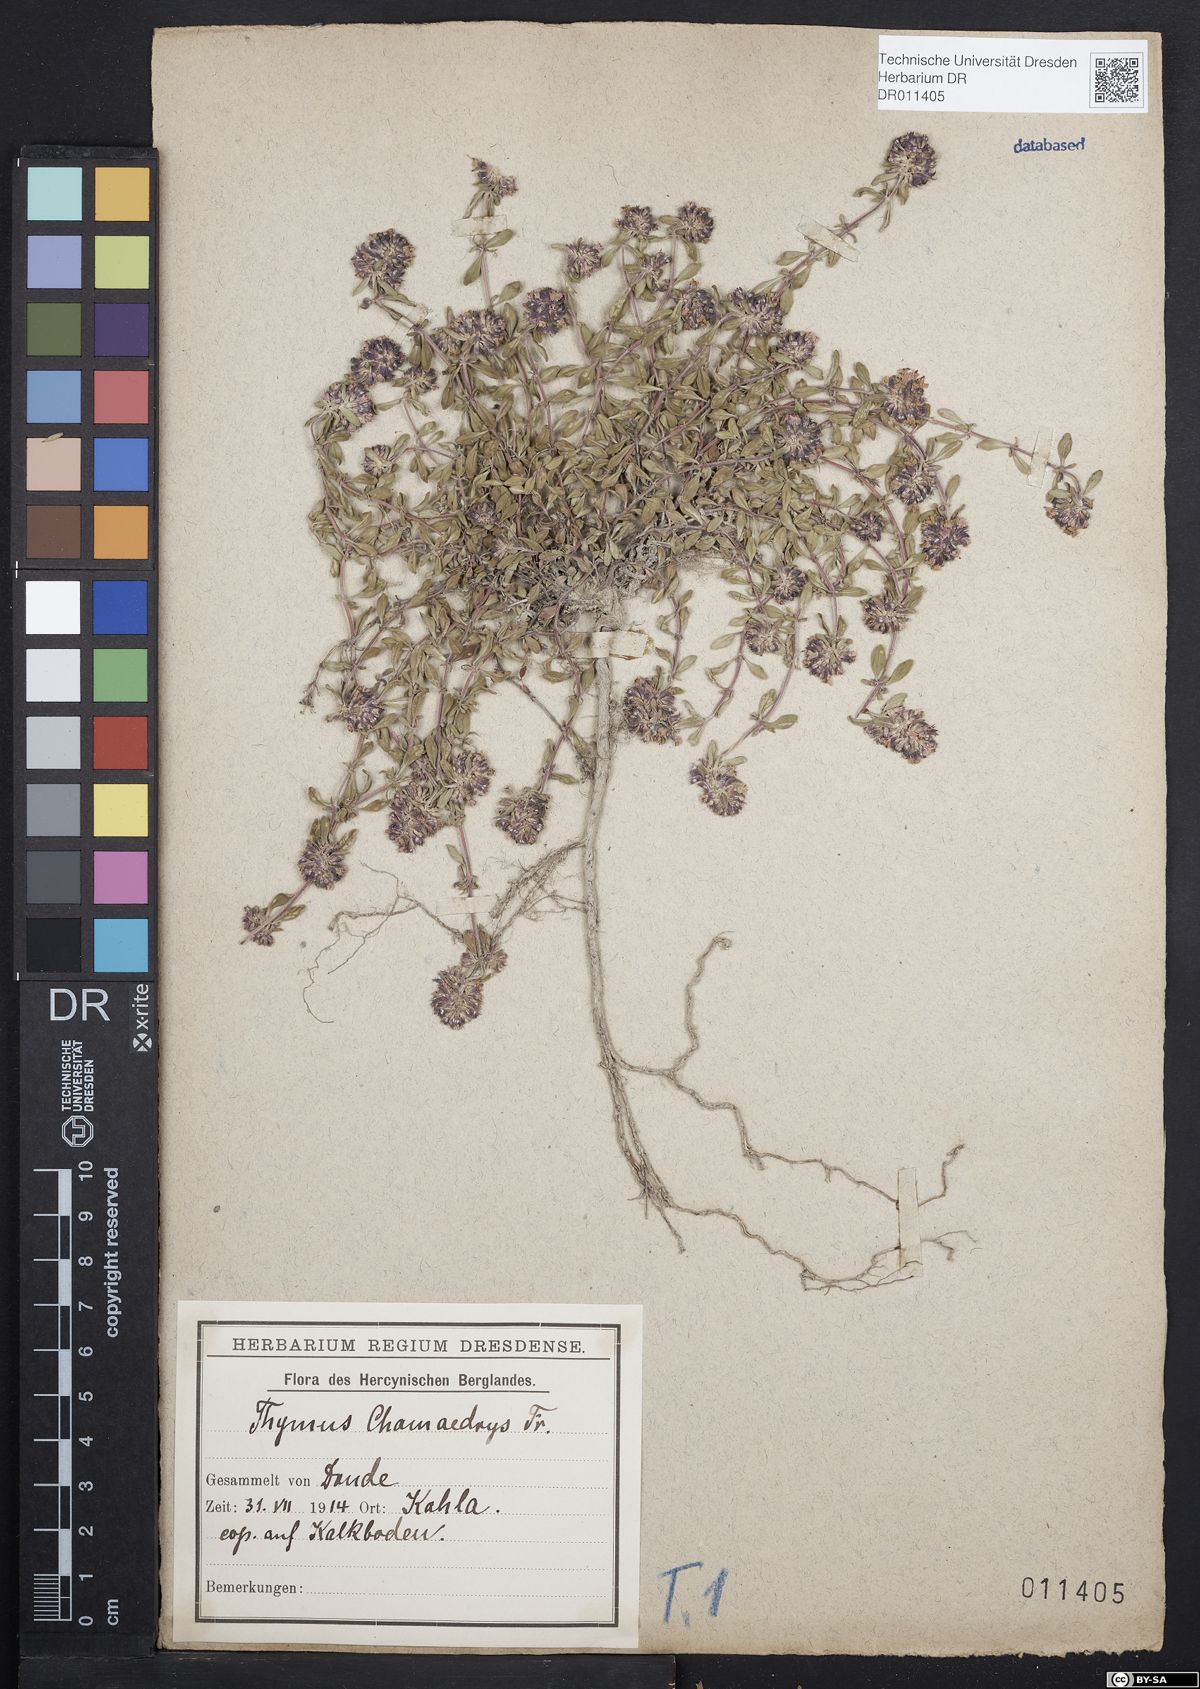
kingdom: Plantae
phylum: Tracheophyta
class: Magnoliopsida
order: Lamiales
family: Lamiaceae
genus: Thymus
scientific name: Thymus pulegioides
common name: Large thyme
